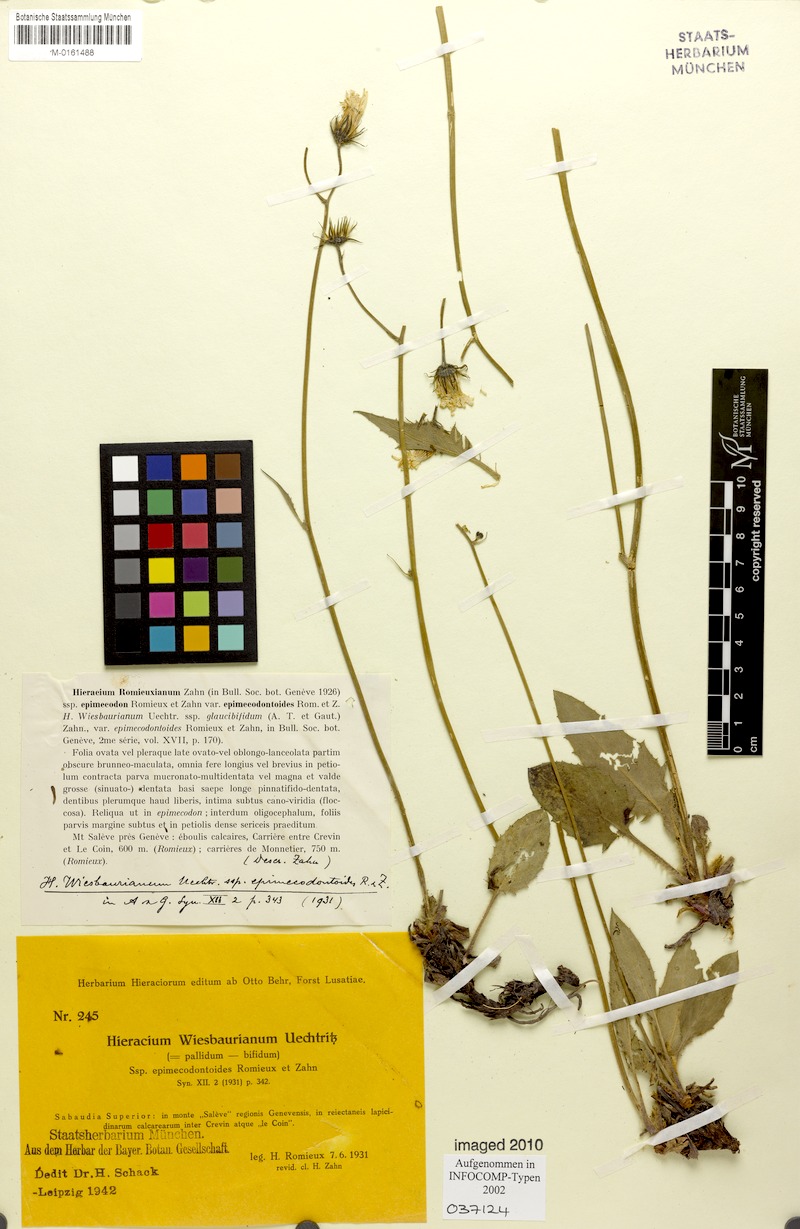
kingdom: Plantae
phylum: Tracheophyta
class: Magnoliopsida
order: Asterales
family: Asteraceae
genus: Hieracium
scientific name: Hieracium hypochoeroides
